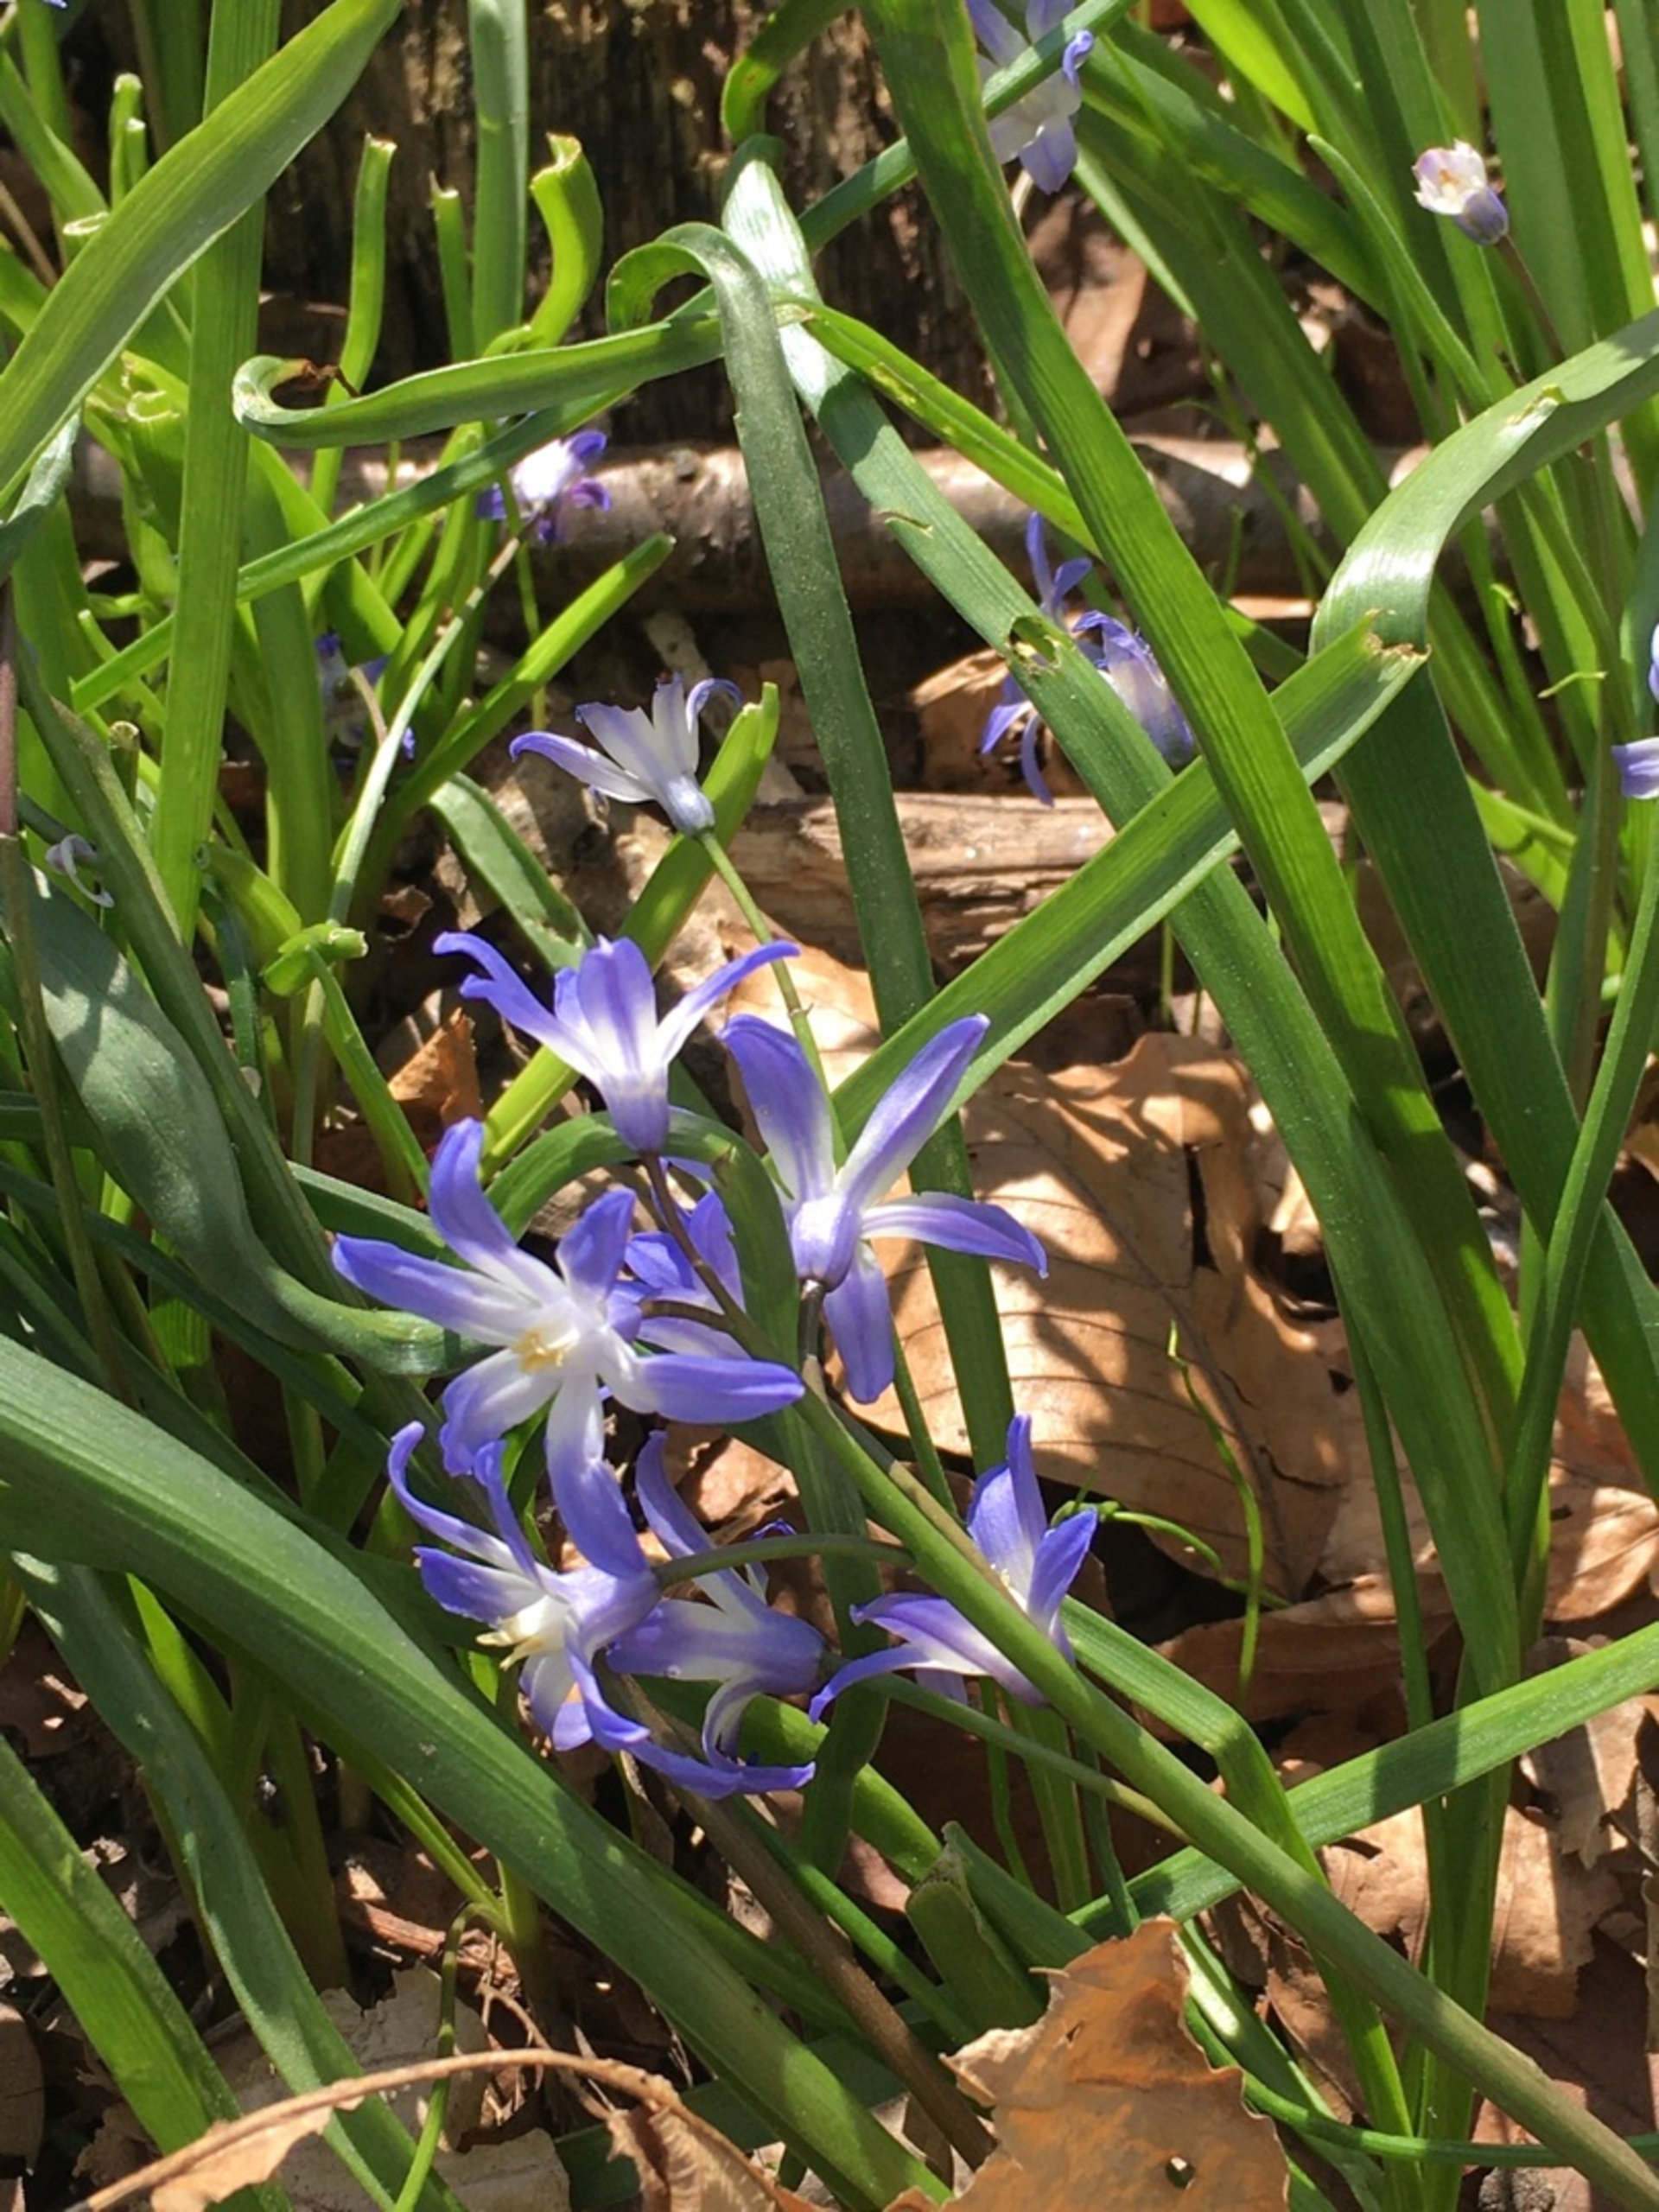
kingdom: Plantae
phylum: Tracheophyta
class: Liliopsida
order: Asparagales
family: Asparagaceae
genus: Scilla
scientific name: Scilla forbesii
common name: Almindelig snepryd
